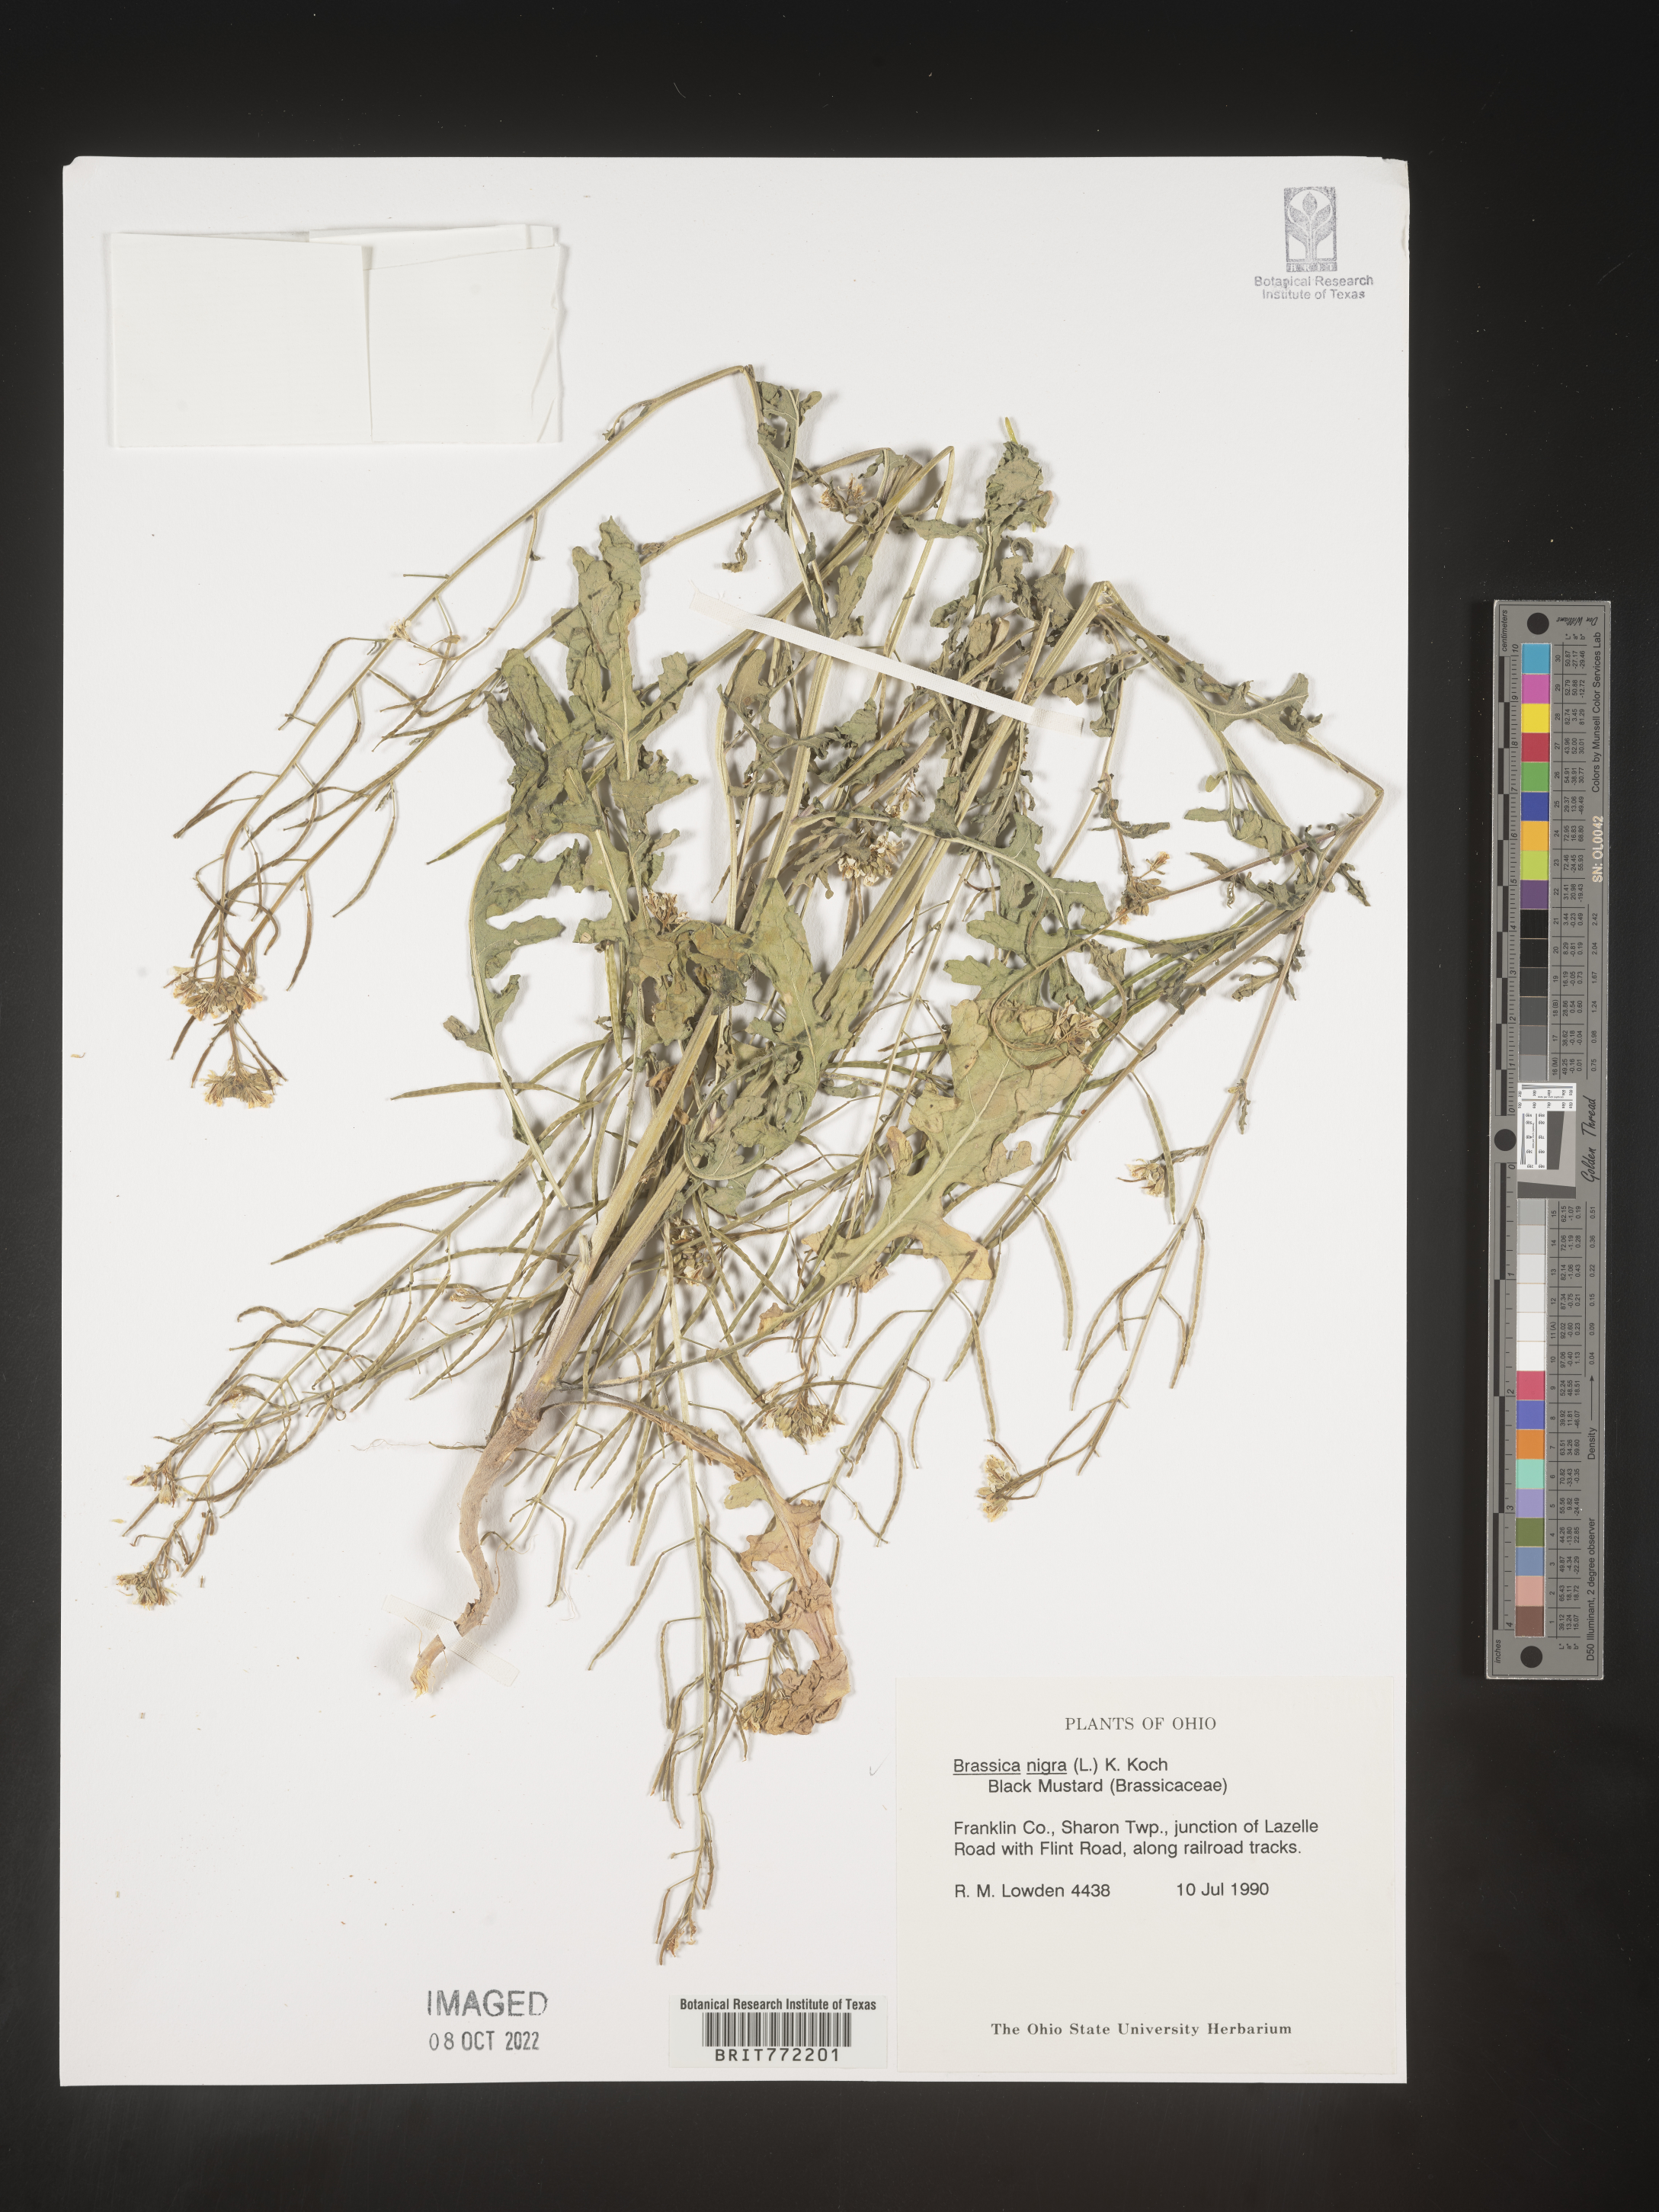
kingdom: Plantae
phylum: Tracheophyta
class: Magnoliopsida
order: Brassicales
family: Brassicaceae
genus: Brassica
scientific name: Brassica nigra
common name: Black mustard
